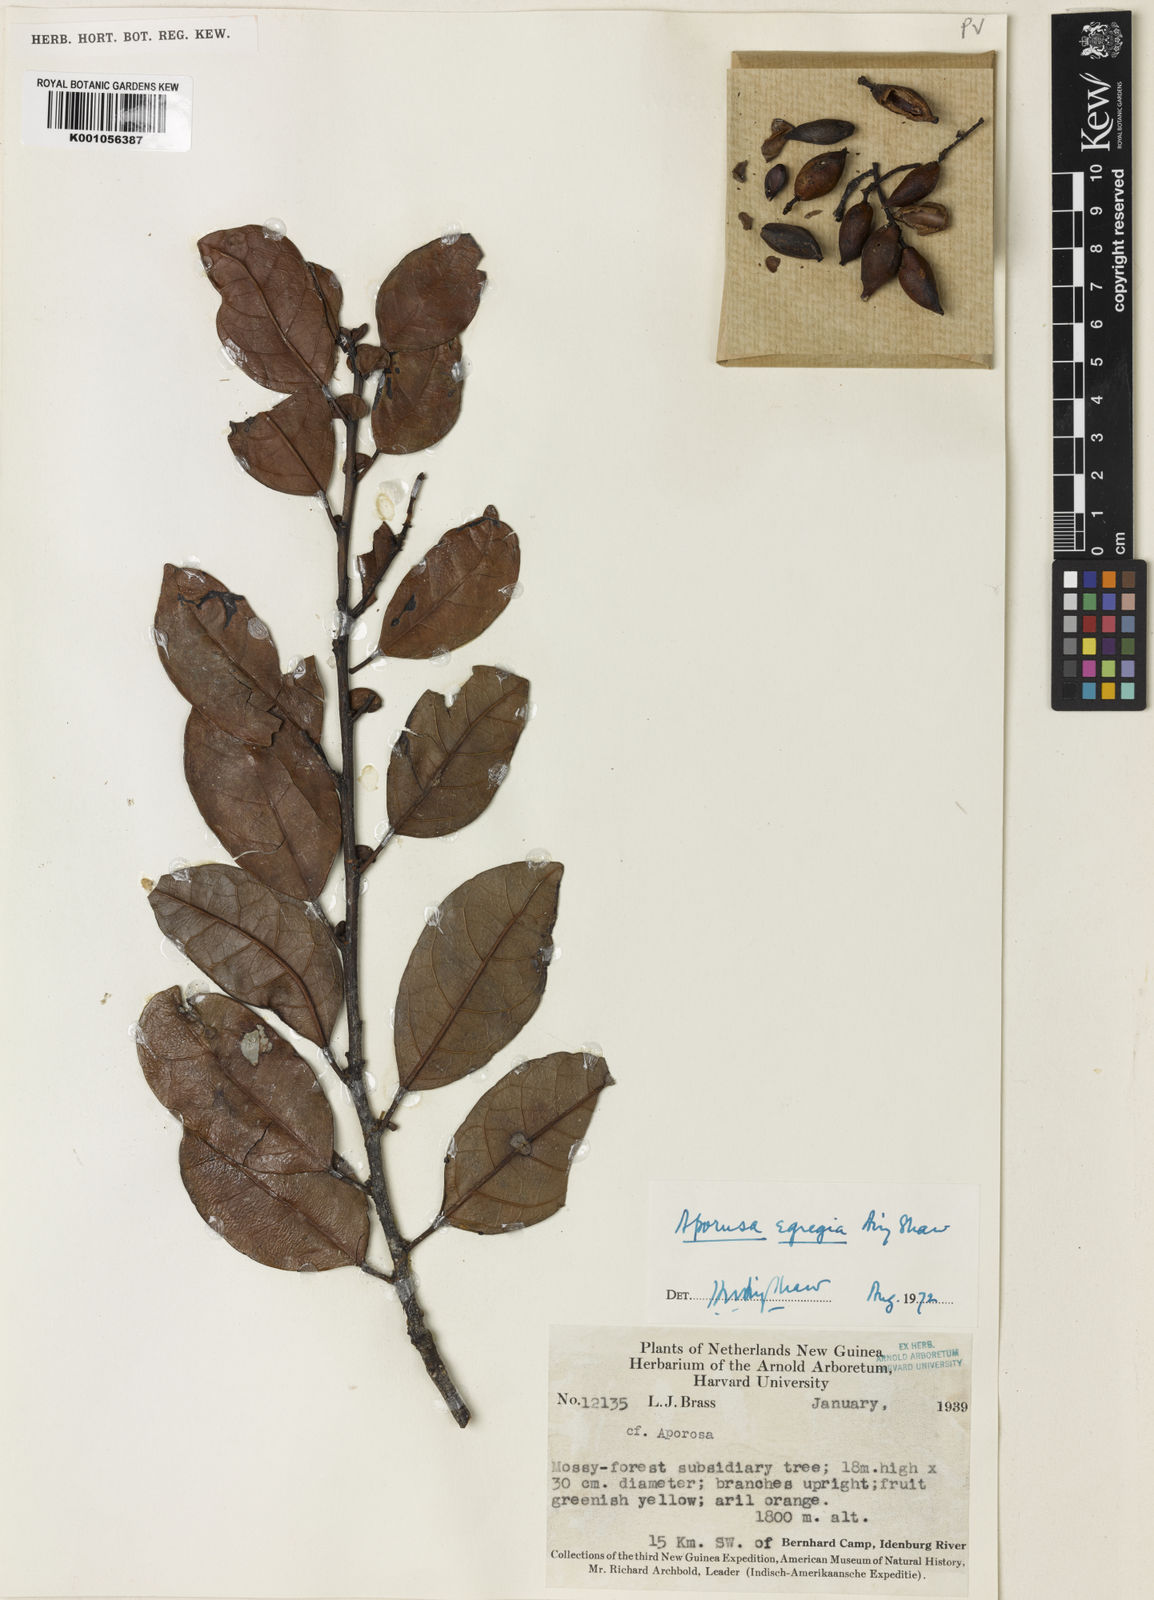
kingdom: Plantae
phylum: Tracheophyta
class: Magnoliopsida
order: Malpighiales
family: Phyllanthaceae
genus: Aporosa
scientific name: Aporosa egregia
